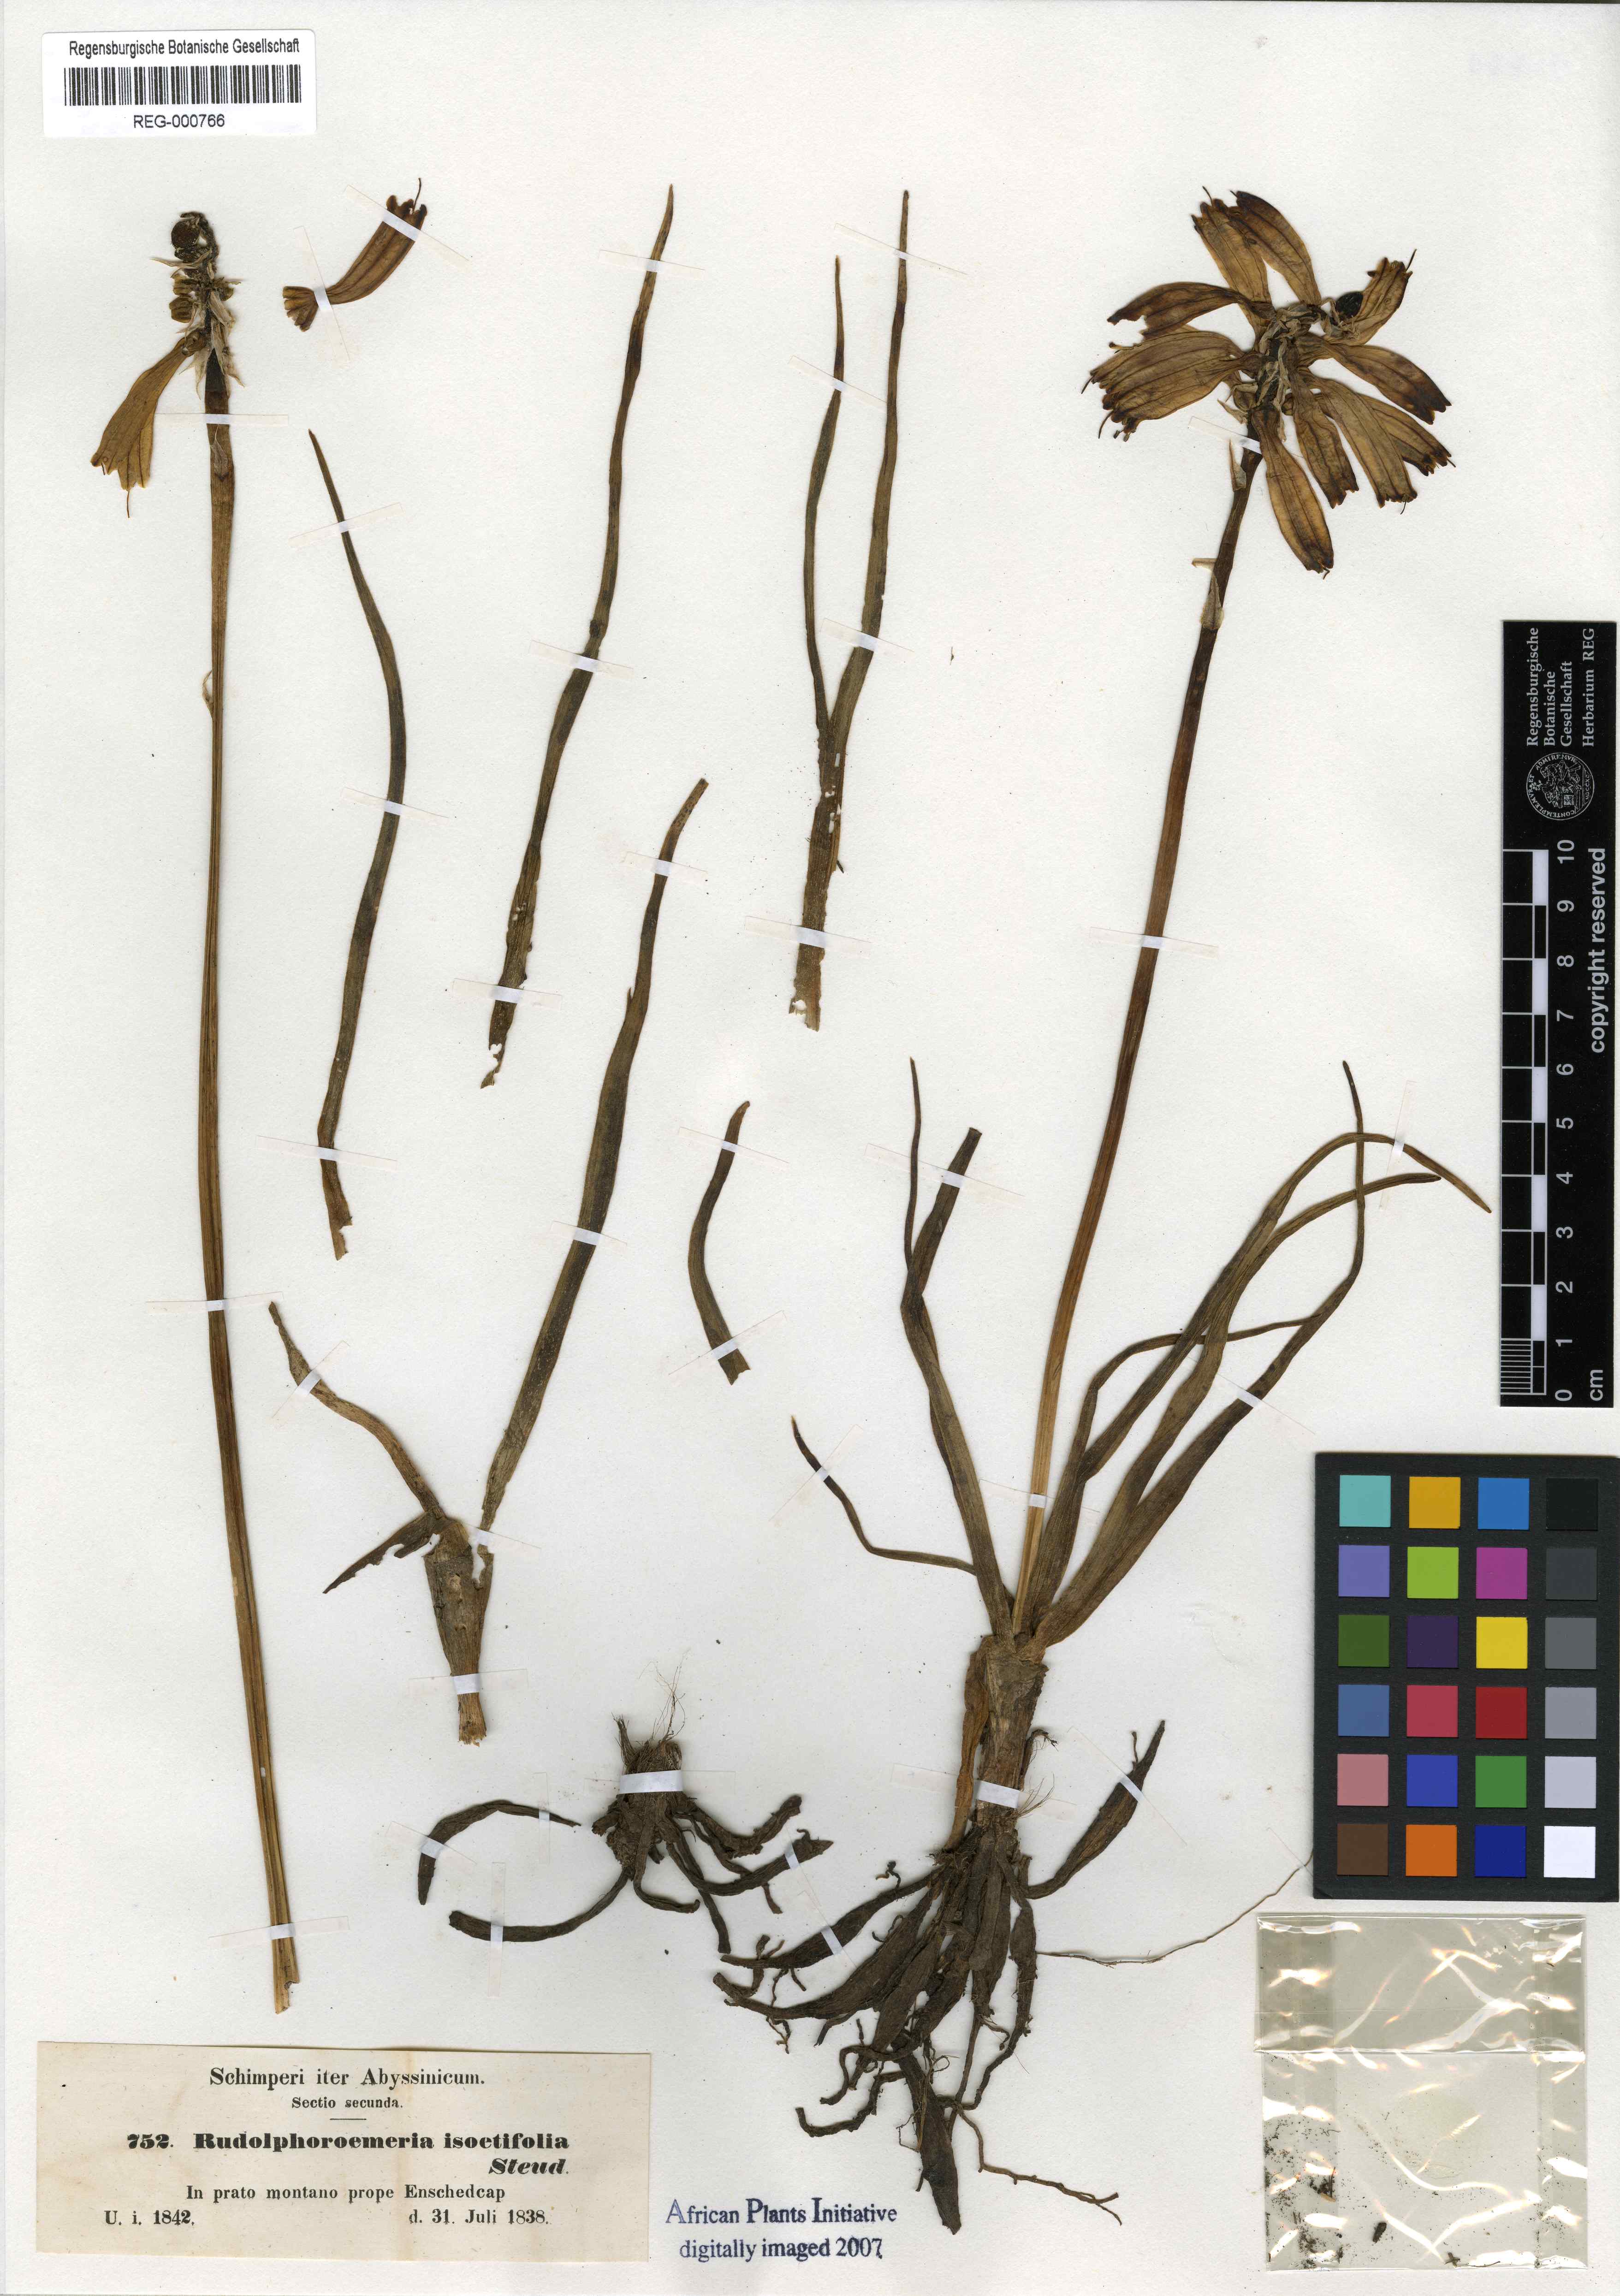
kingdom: Plantae
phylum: Tracheophyta
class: Liliopsida
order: Asparagales
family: Asphodelaceae
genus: Kniphofia
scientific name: Kniphofia isoetifolia
